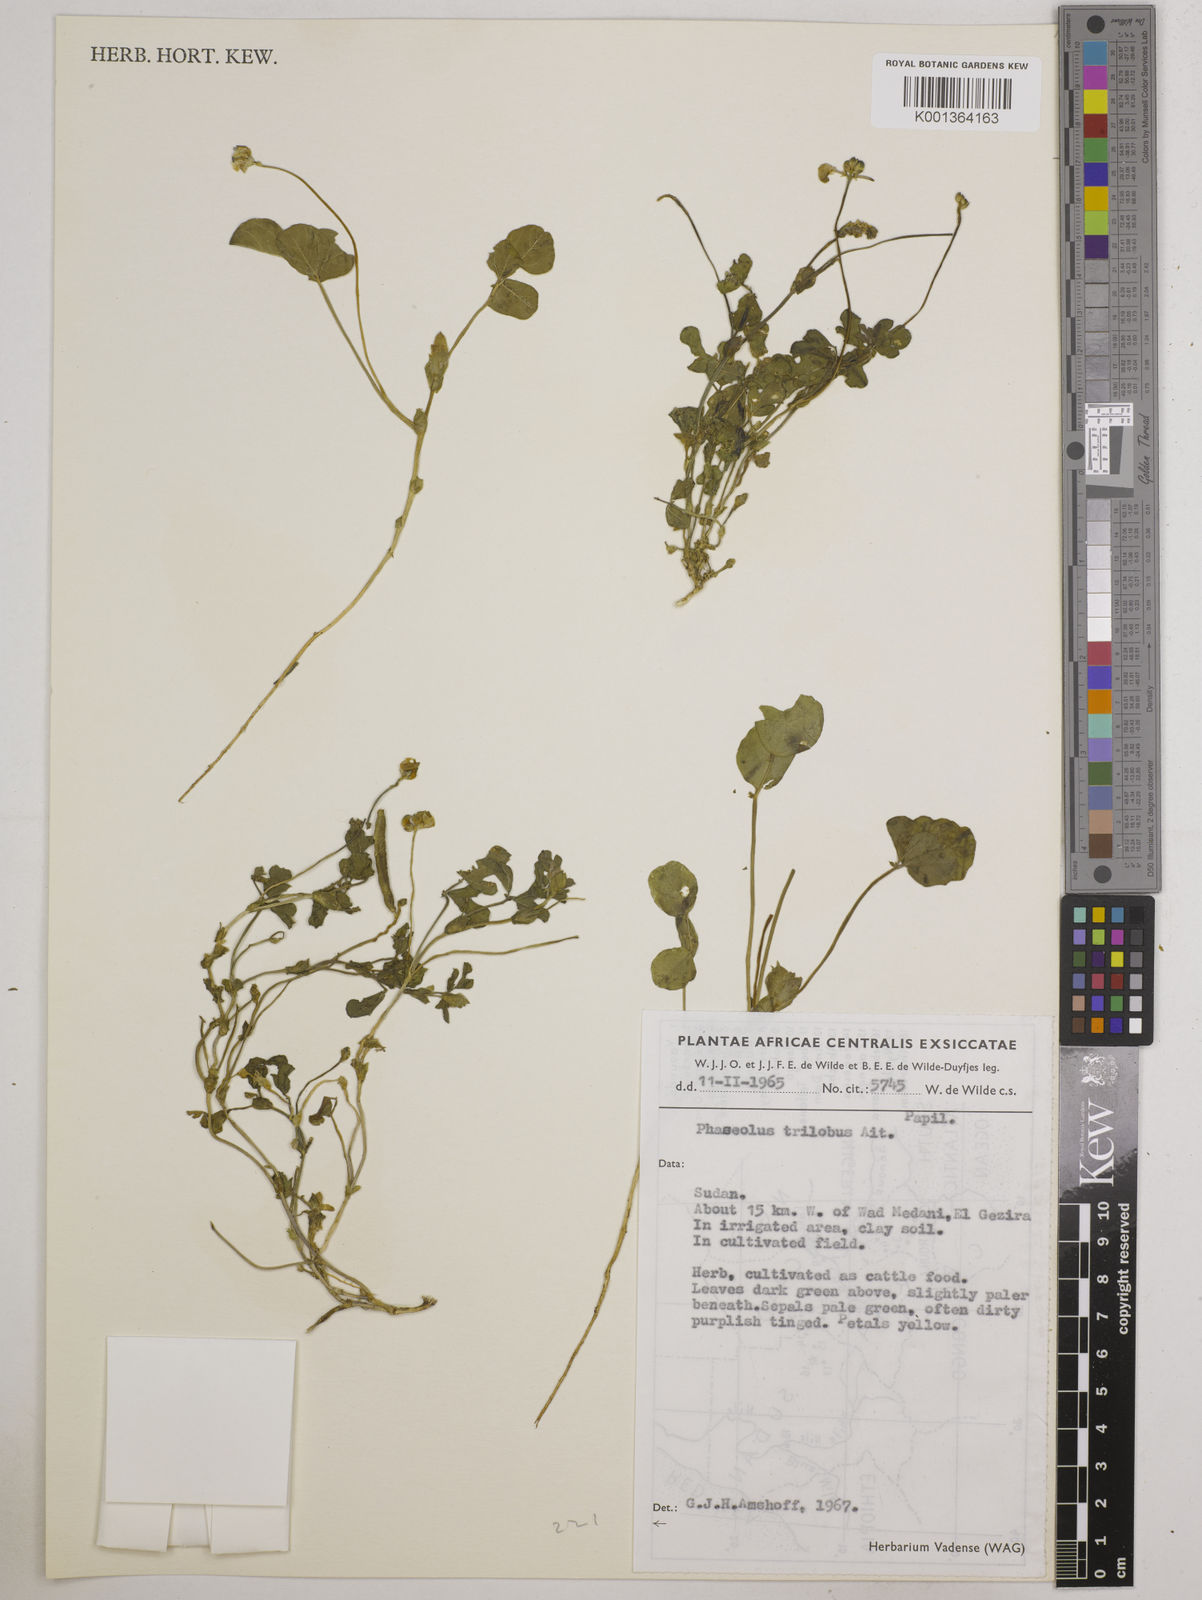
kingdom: Plantae
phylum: Tracheophyta
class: Magnoliopsida
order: Fabales
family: Fabaceae
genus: Vigna
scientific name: Vigna trilobata
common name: Jungli-bean
